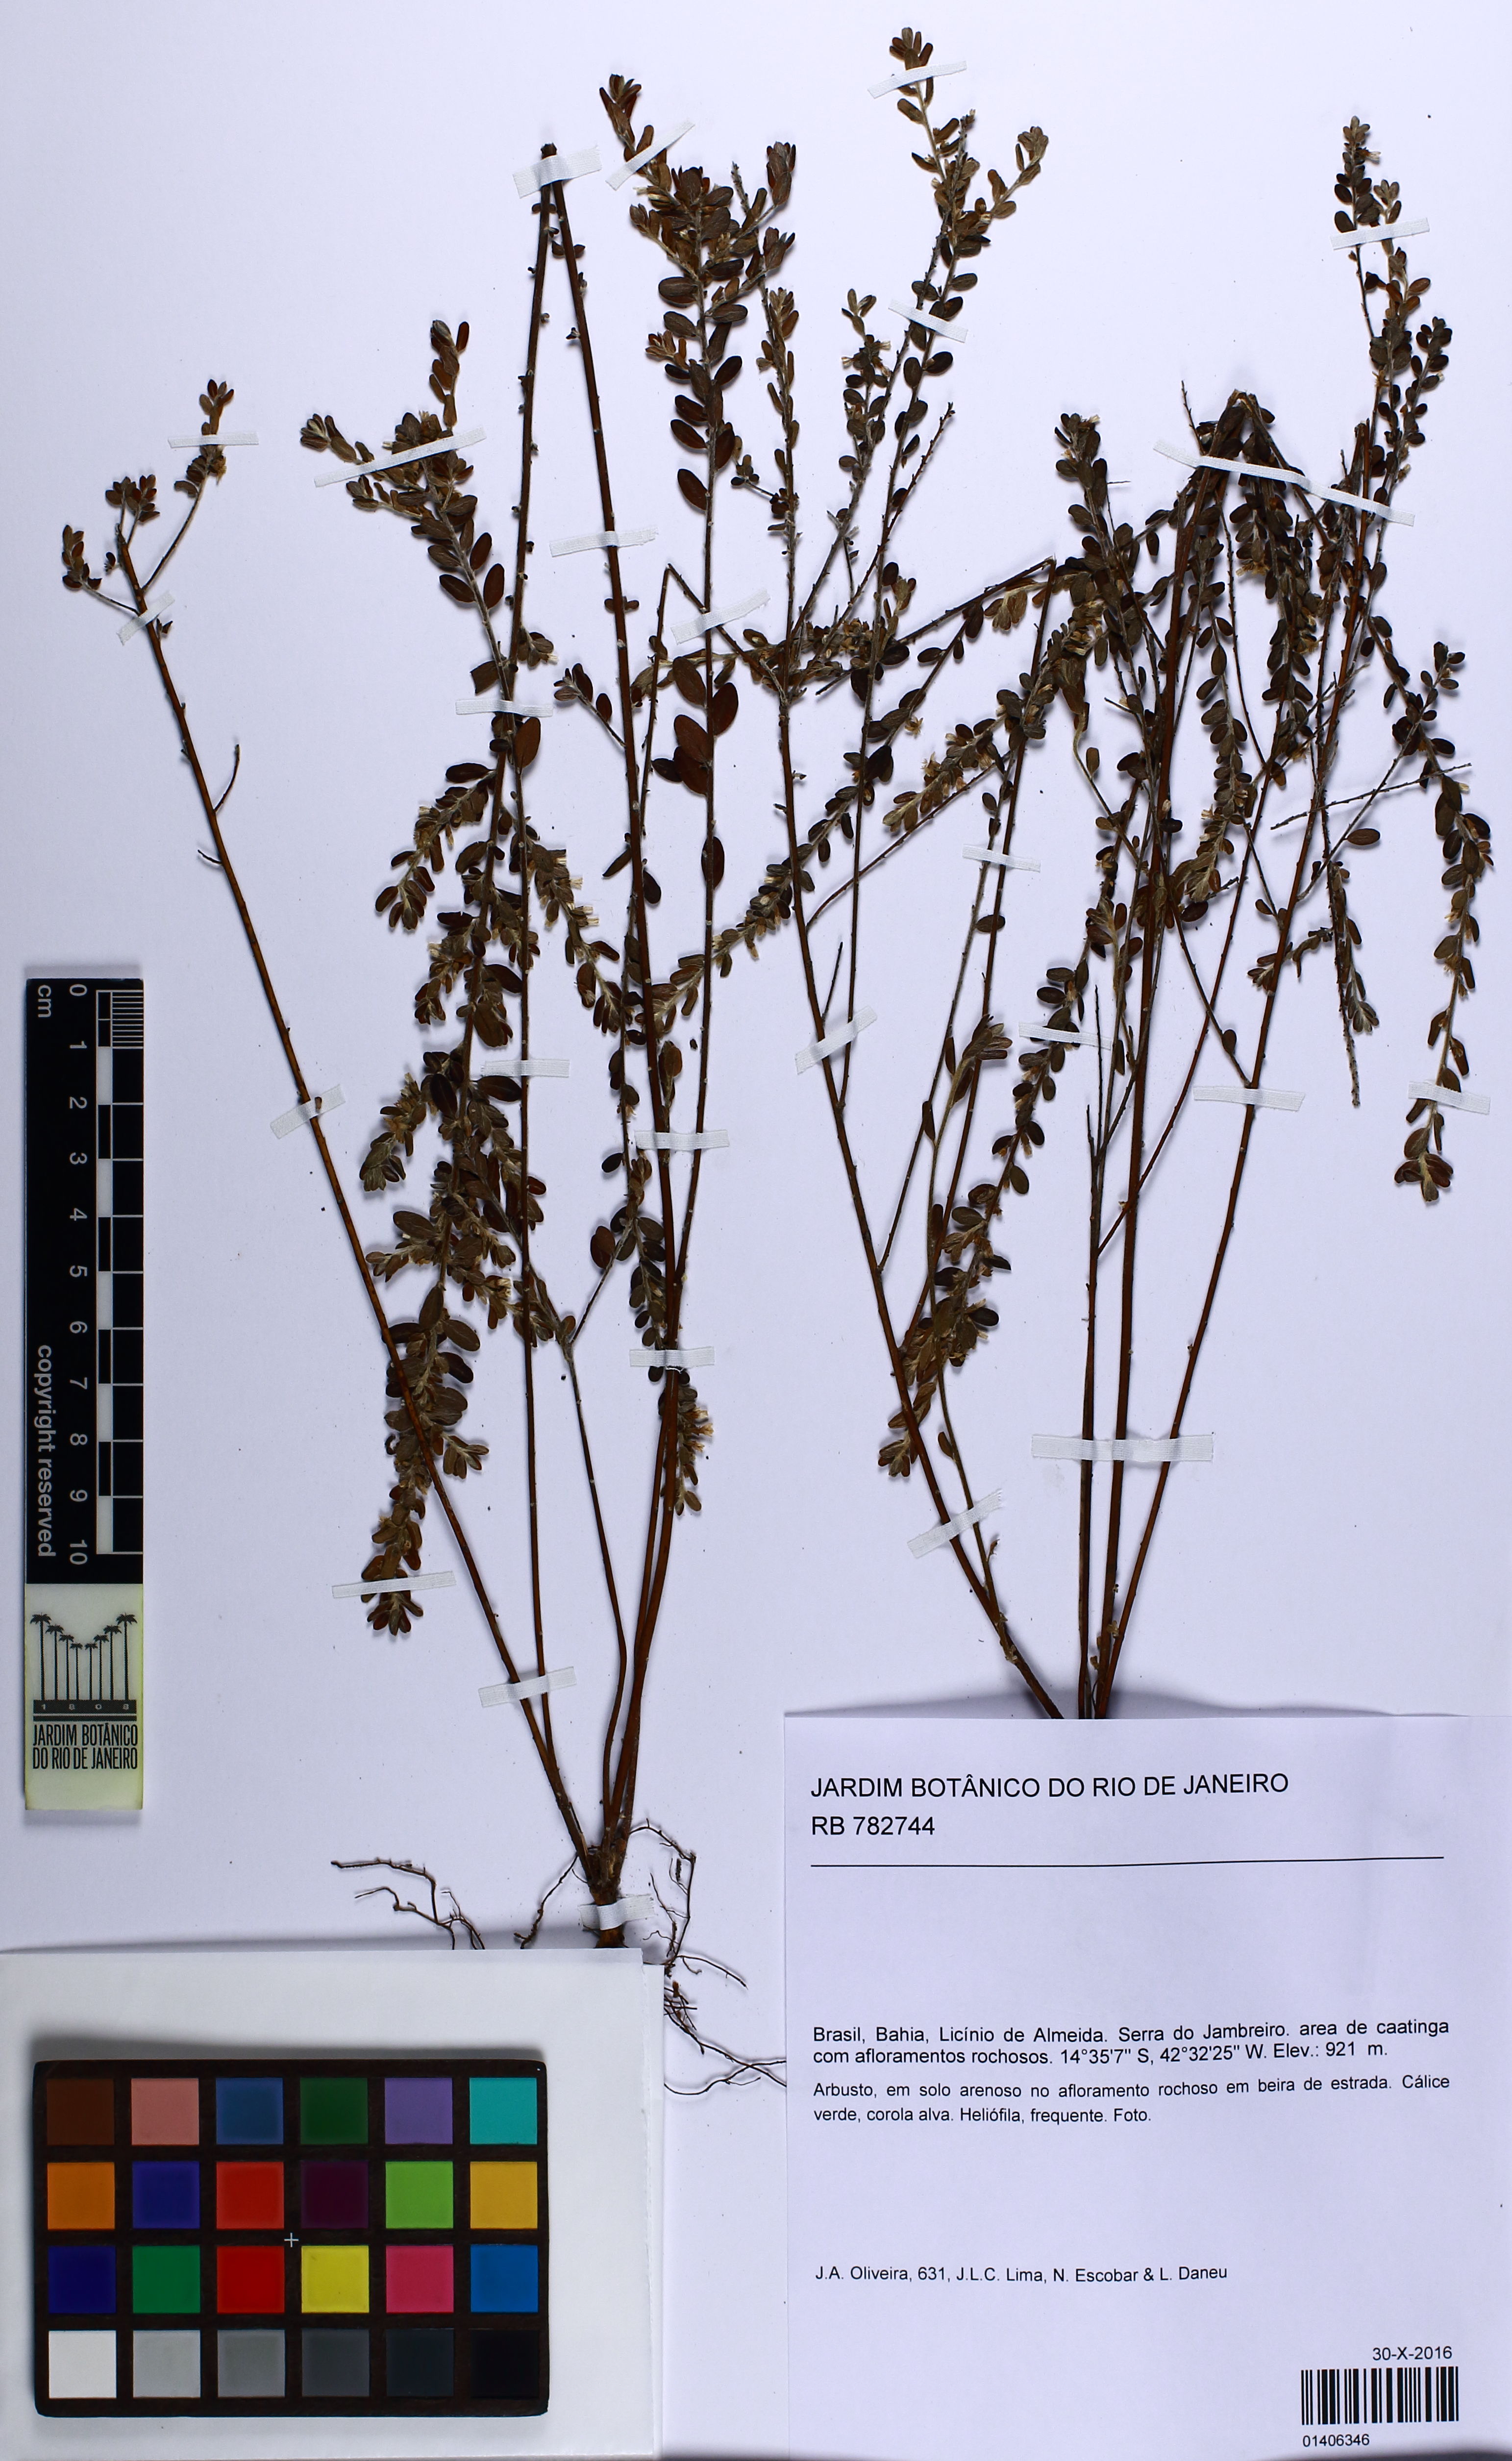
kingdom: Plantae
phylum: Tracheophyta
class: Magnoliopsida
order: Solanales
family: Convolvulaceae
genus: Evolvulus
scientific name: Evolvulus
